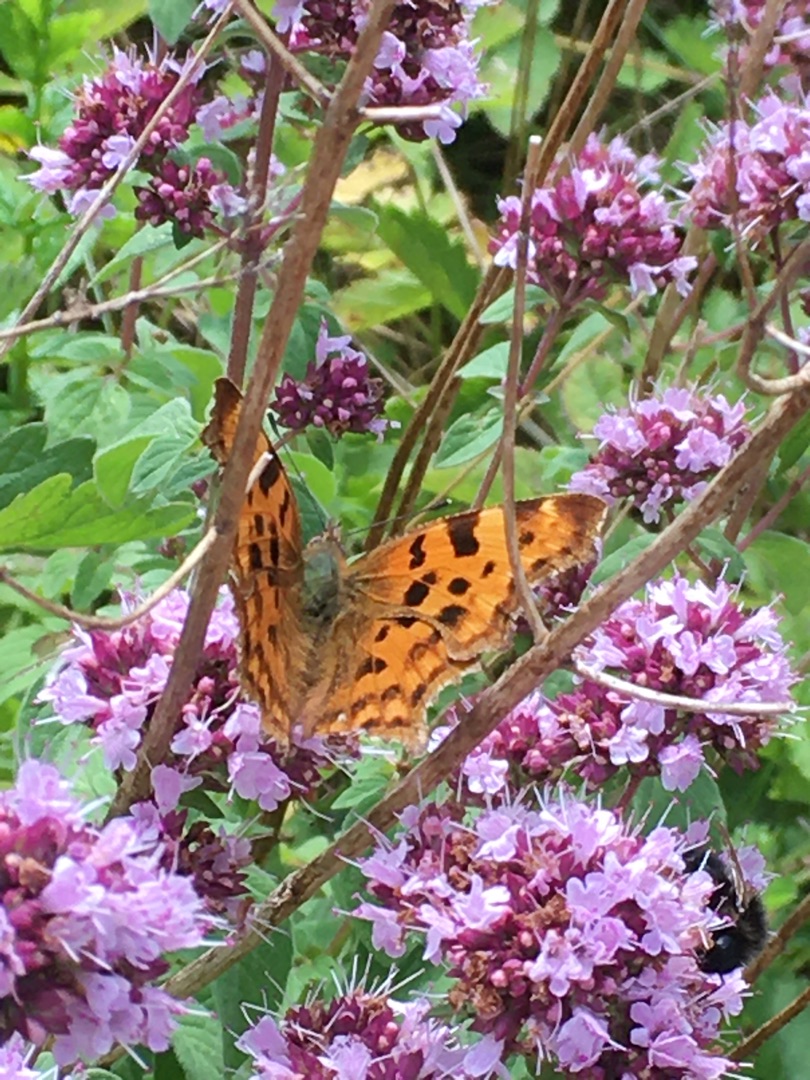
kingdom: Animalia
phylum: Arthropoda
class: Insecta
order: Lepidoptera
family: Nymphalidae
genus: Polygonia
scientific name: Polygonia c-album
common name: Det hvide C
